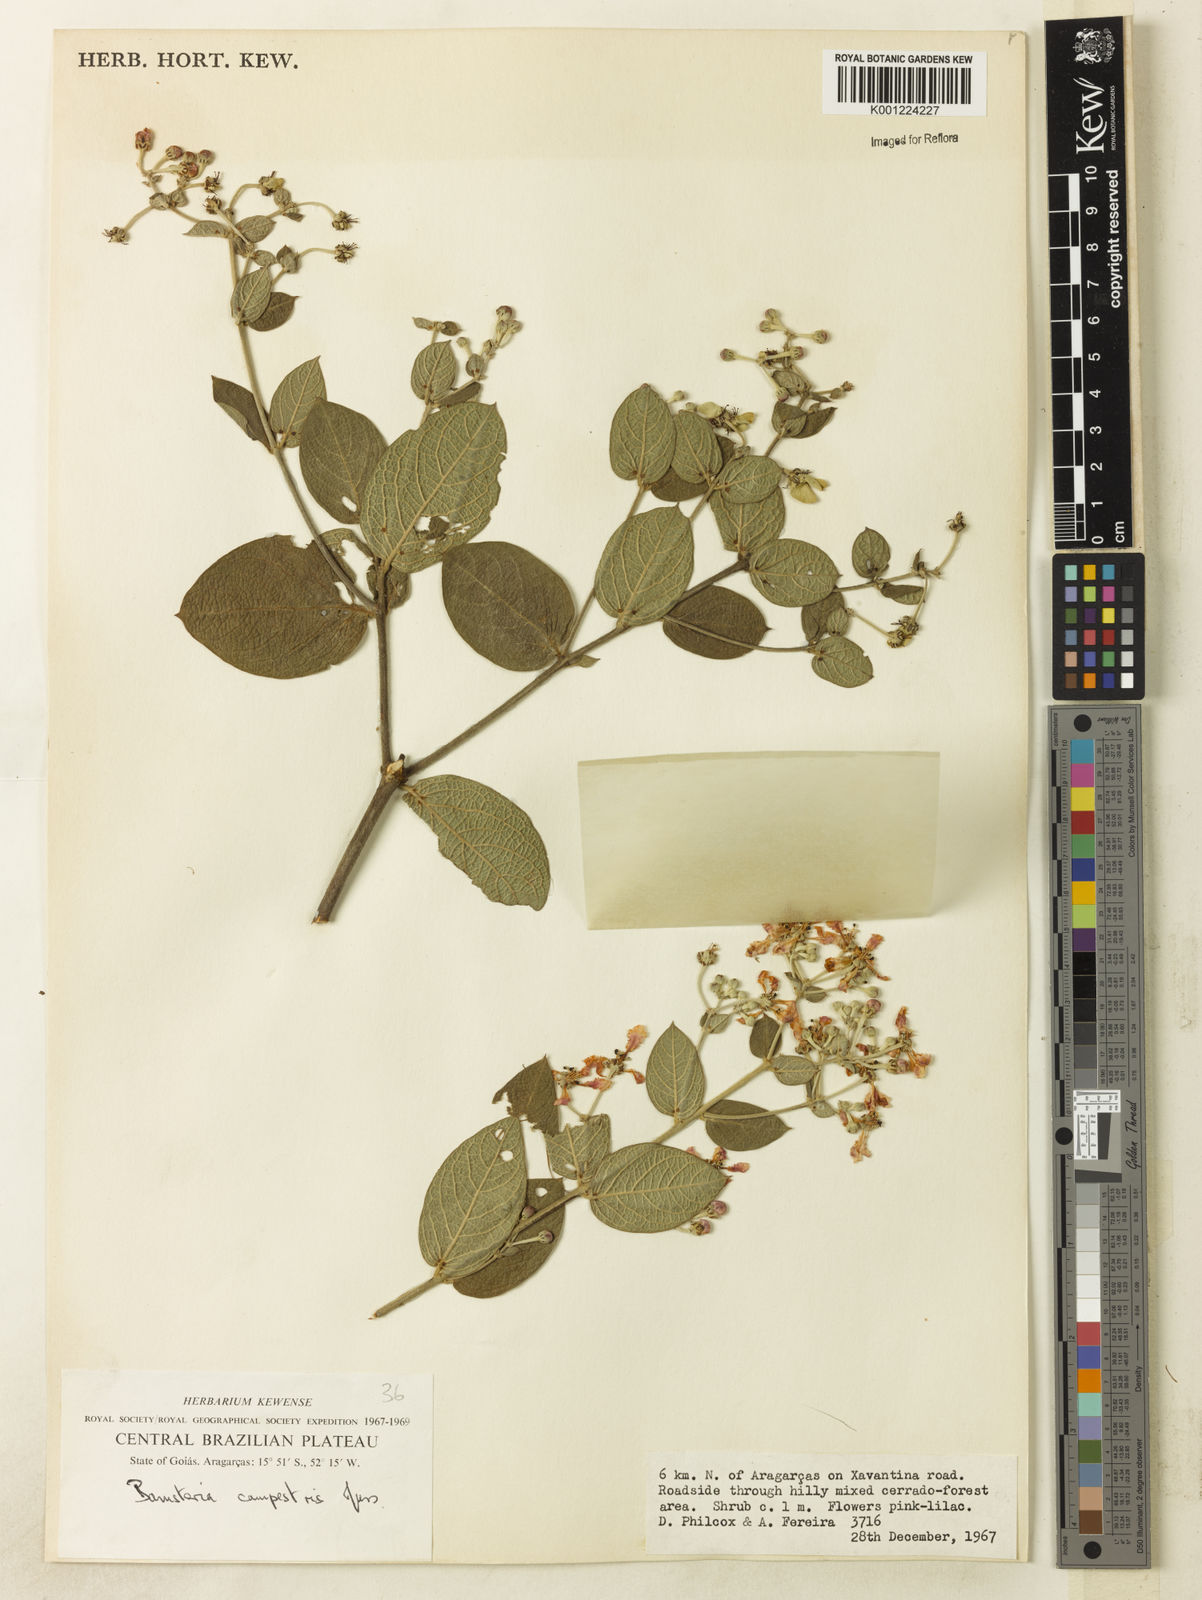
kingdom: Plantae
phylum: Tracheophyta
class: Magnoliopsida
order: Malpighiales
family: Malpighiaceae
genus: Banisteriopsis
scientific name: Banisteriopsis campestris
